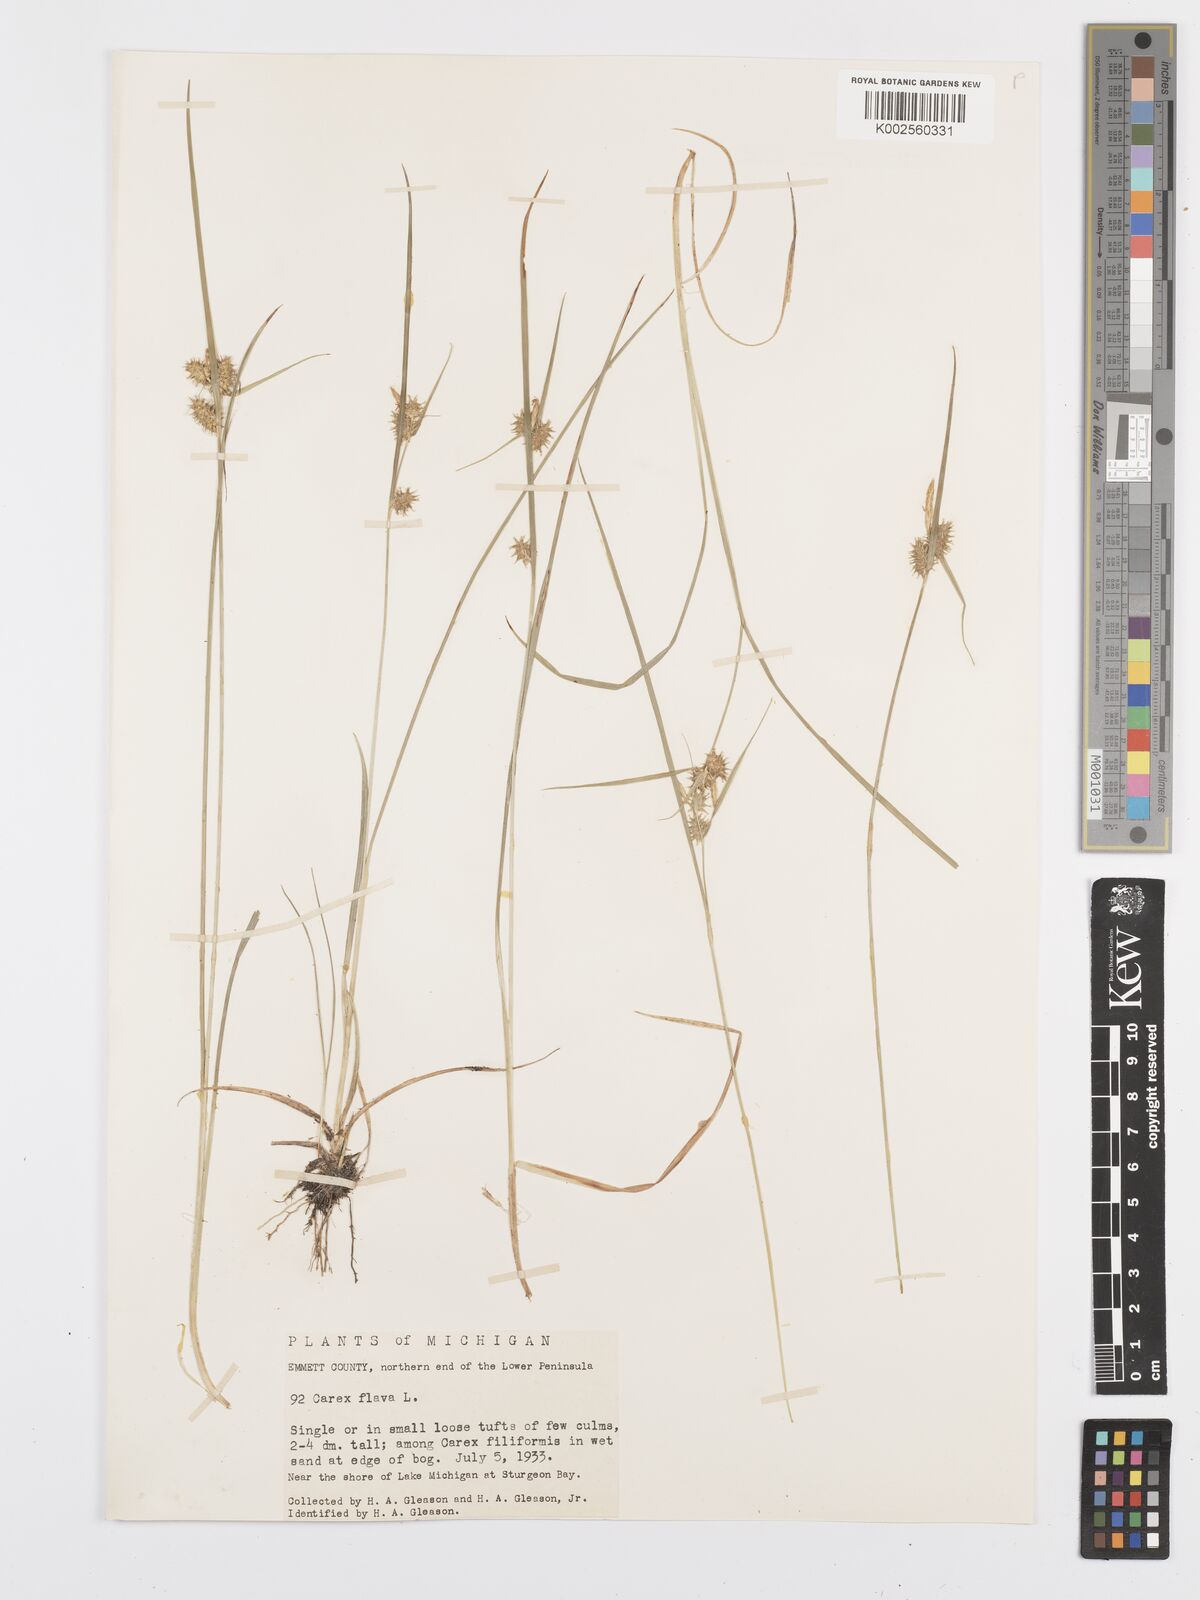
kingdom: Plantae
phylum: Tracheophyta
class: Liliopsida
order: Poales
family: Cyperaceae
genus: Carex
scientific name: Carex flava
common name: Large yellow-sedge
